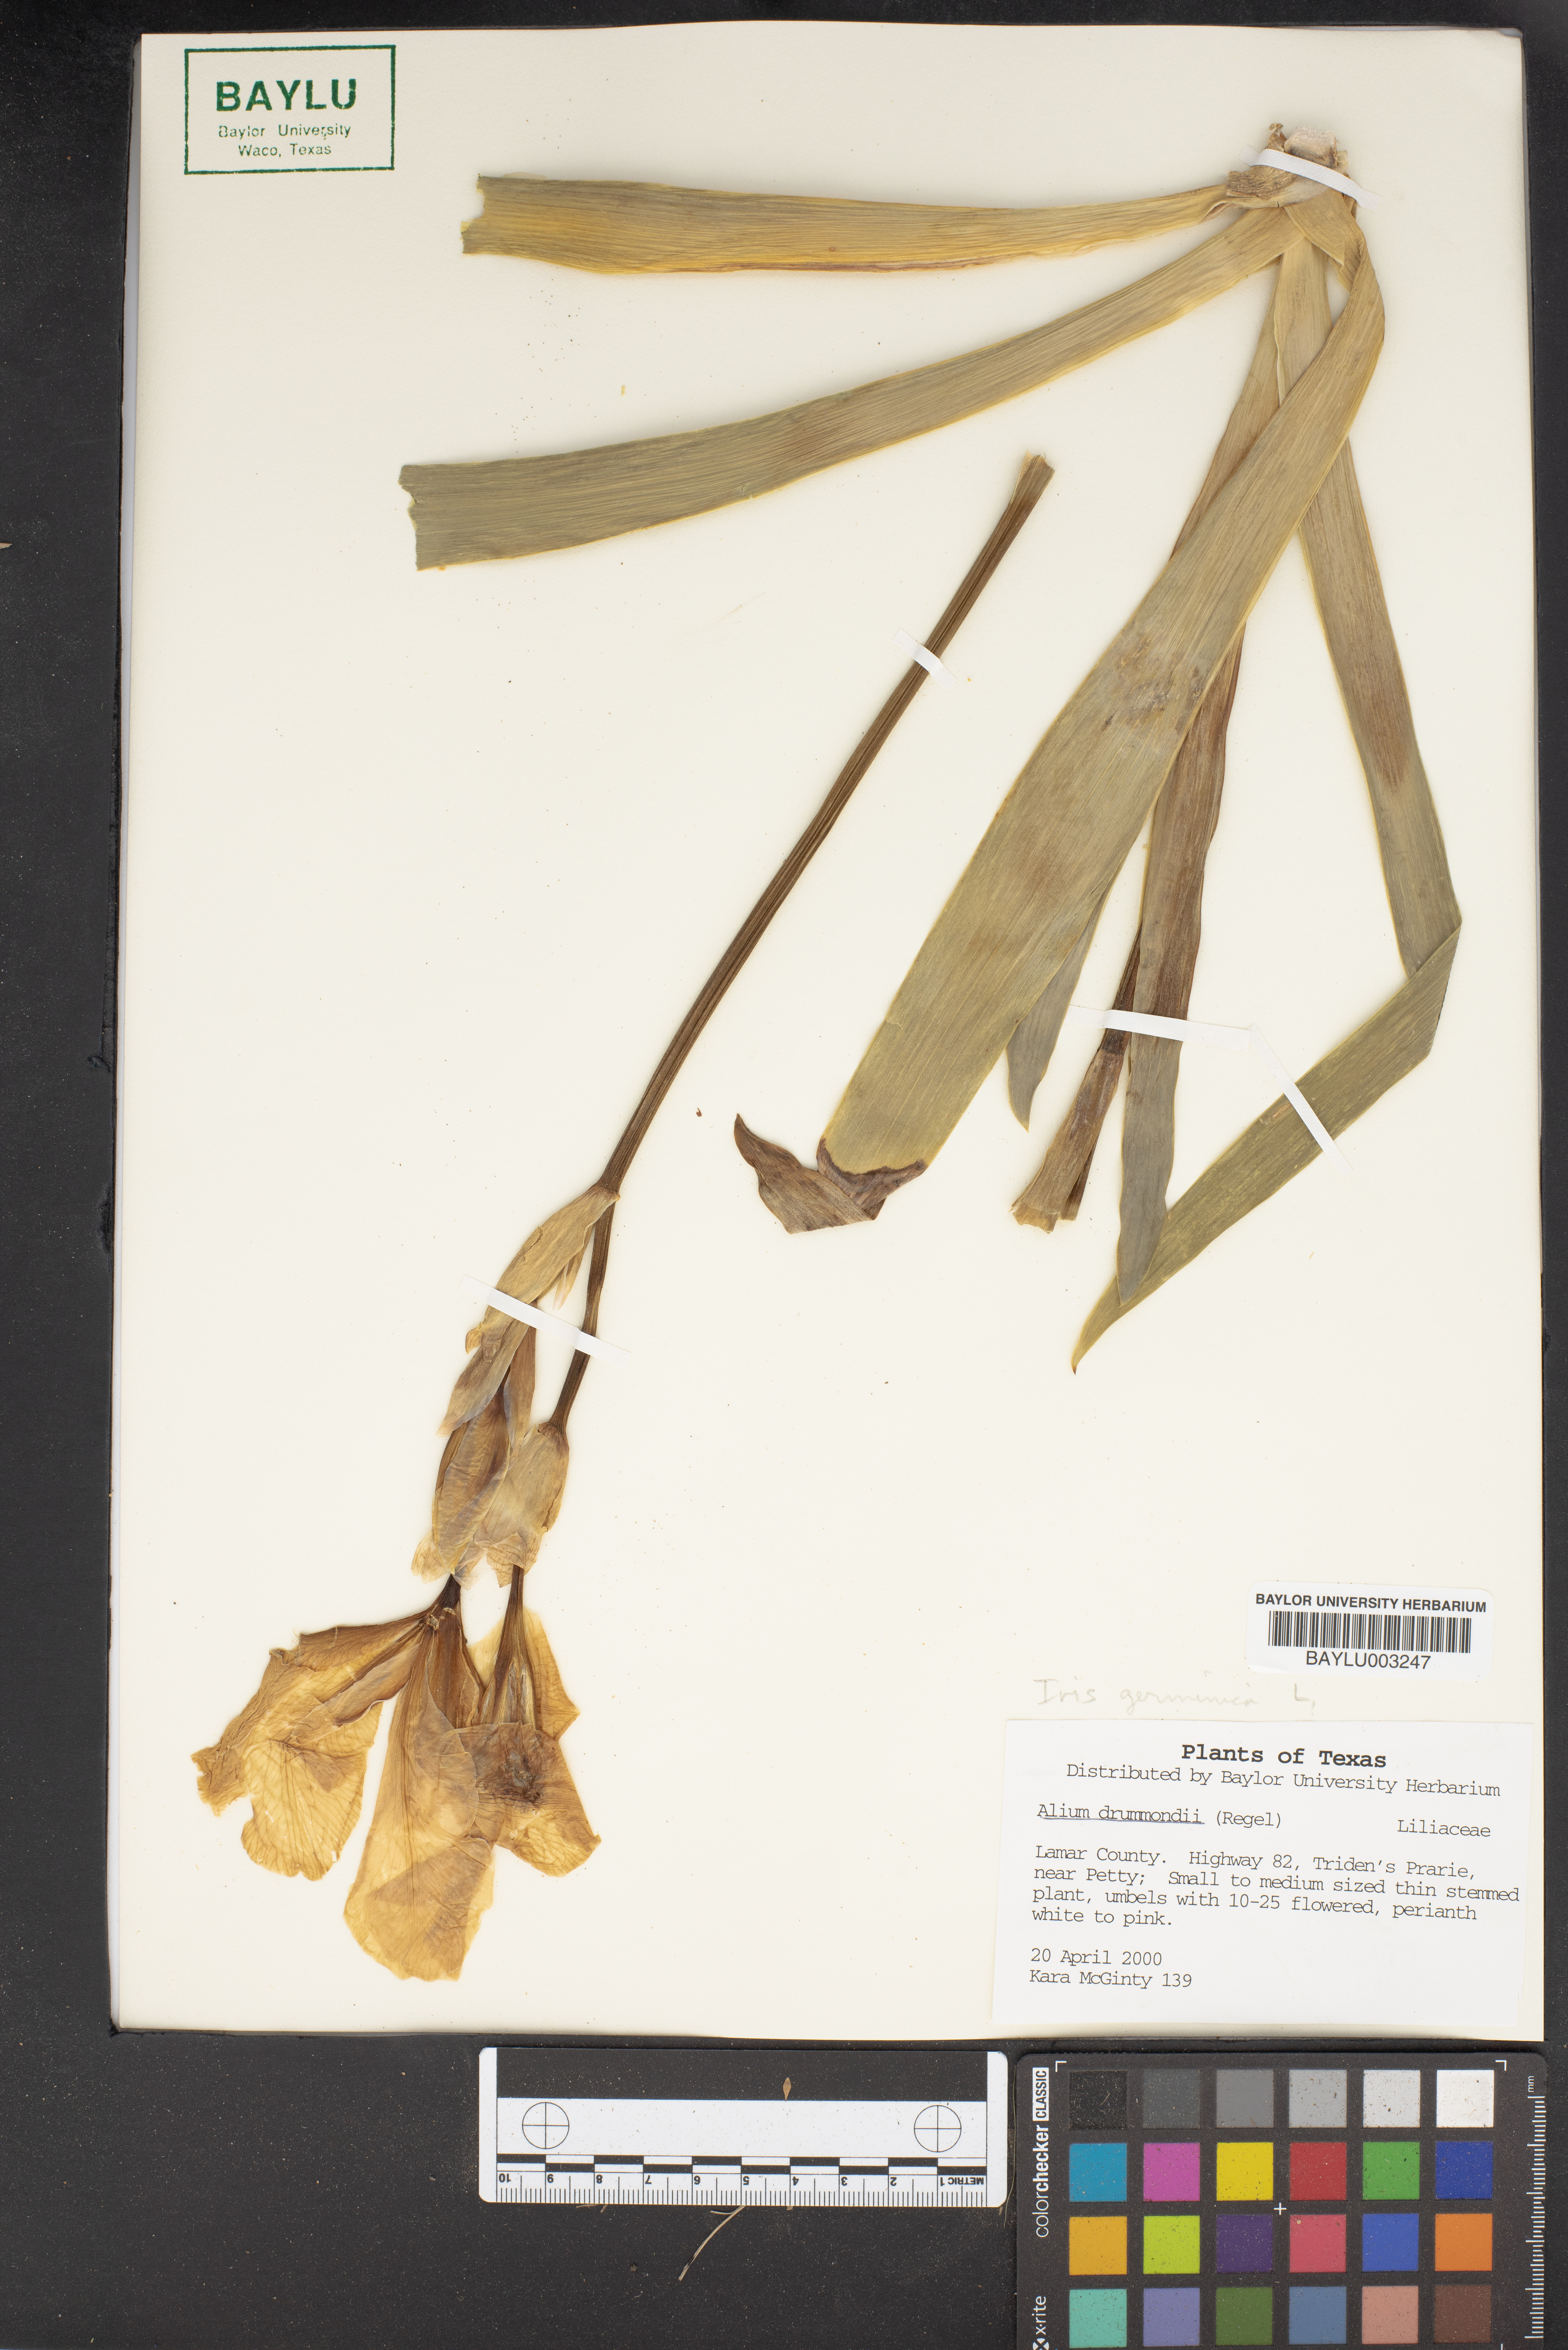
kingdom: Plantae
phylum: Tracheophyta
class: Liliopsida
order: Asparagales
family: Amaryllidaceae
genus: Allium
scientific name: Allium drummondii
